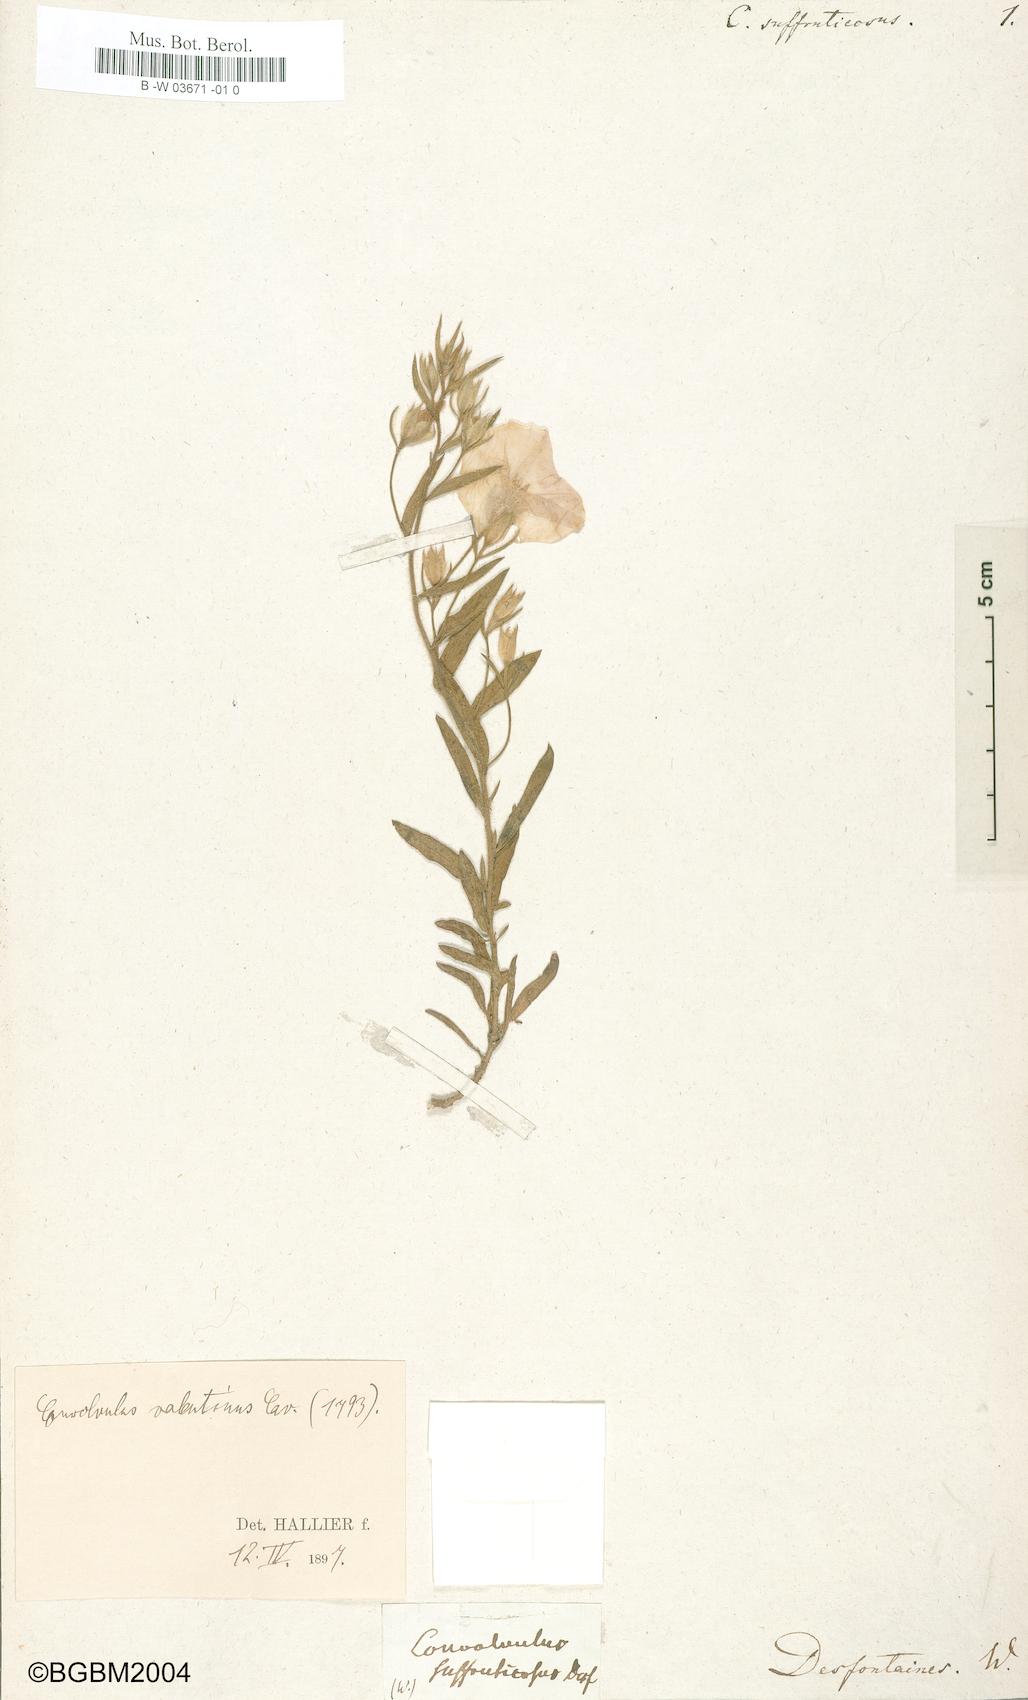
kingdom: Plantae
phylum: Tracheophyta
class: Magnoliopsida
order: Solanales
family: Convolvulaceae
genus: Convolvulus
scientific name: Convolvulus
